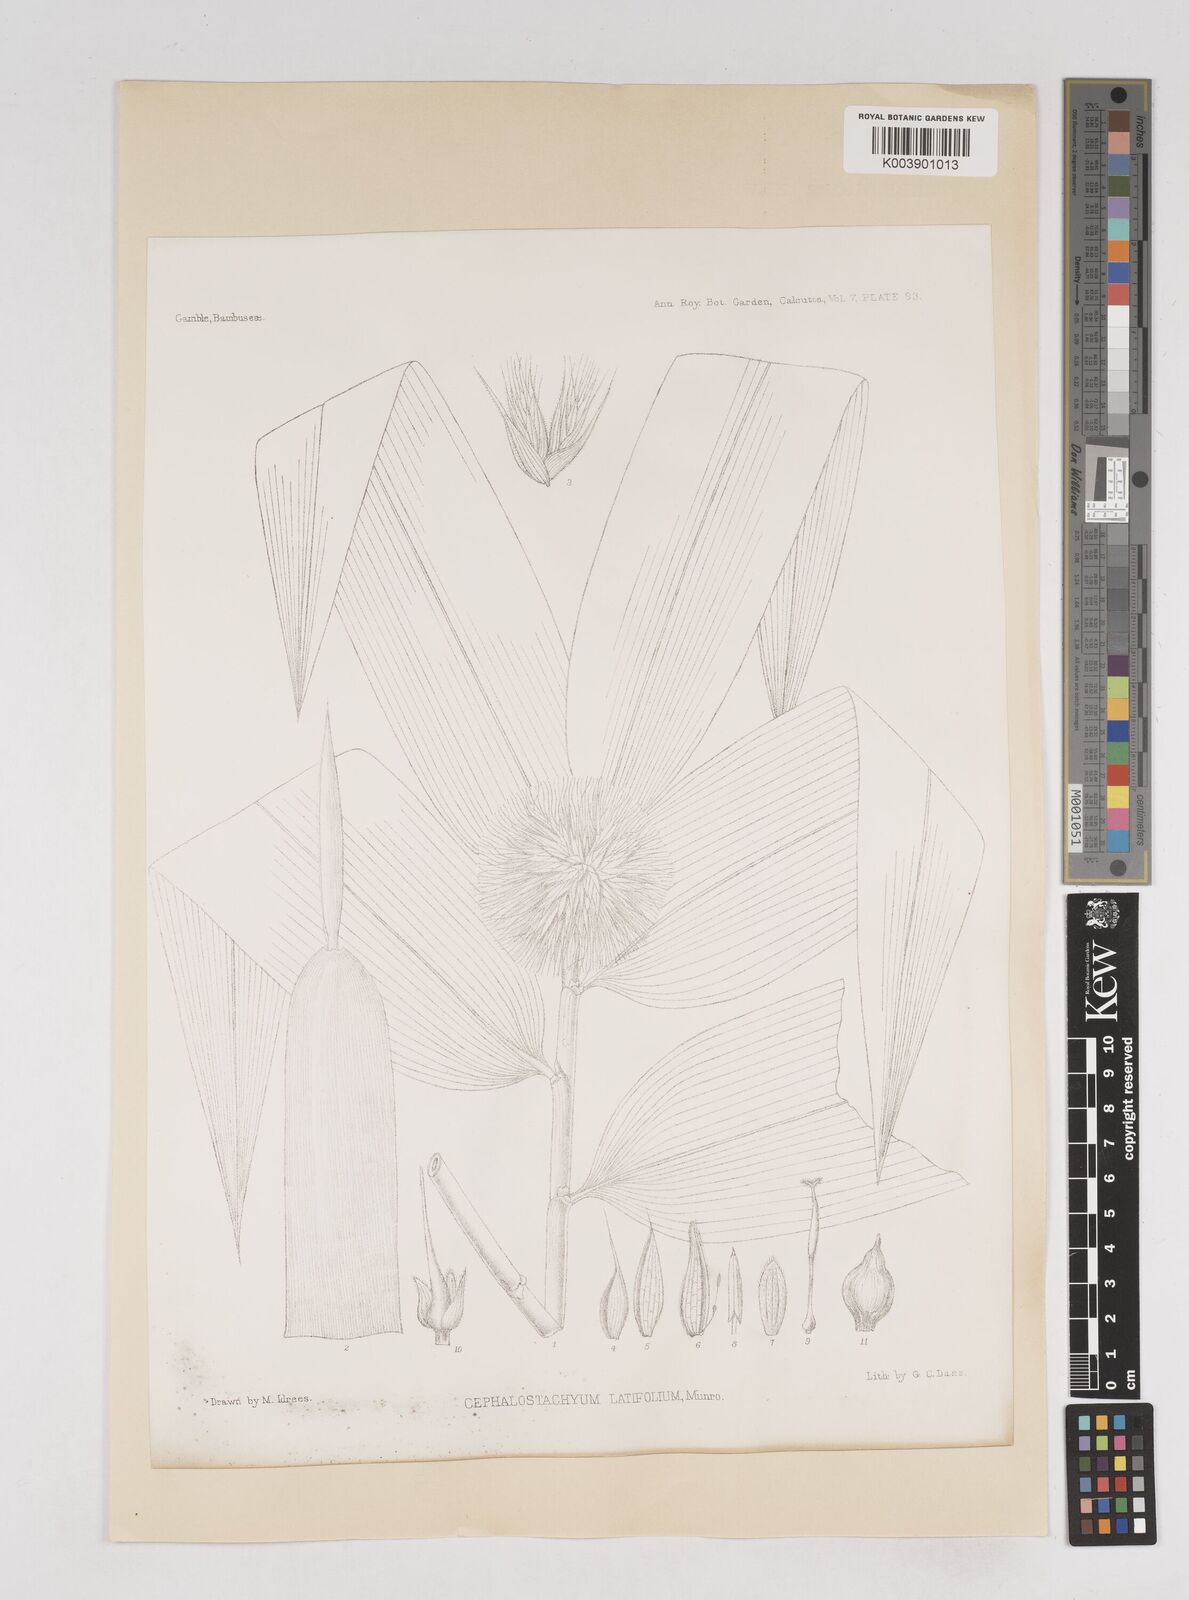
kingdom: Plantae
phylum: Tracheophyta
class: Liliopsida
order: Poales
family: Poaceae
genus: Cephalostachyum
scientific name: Cephalostachyum latifolium
